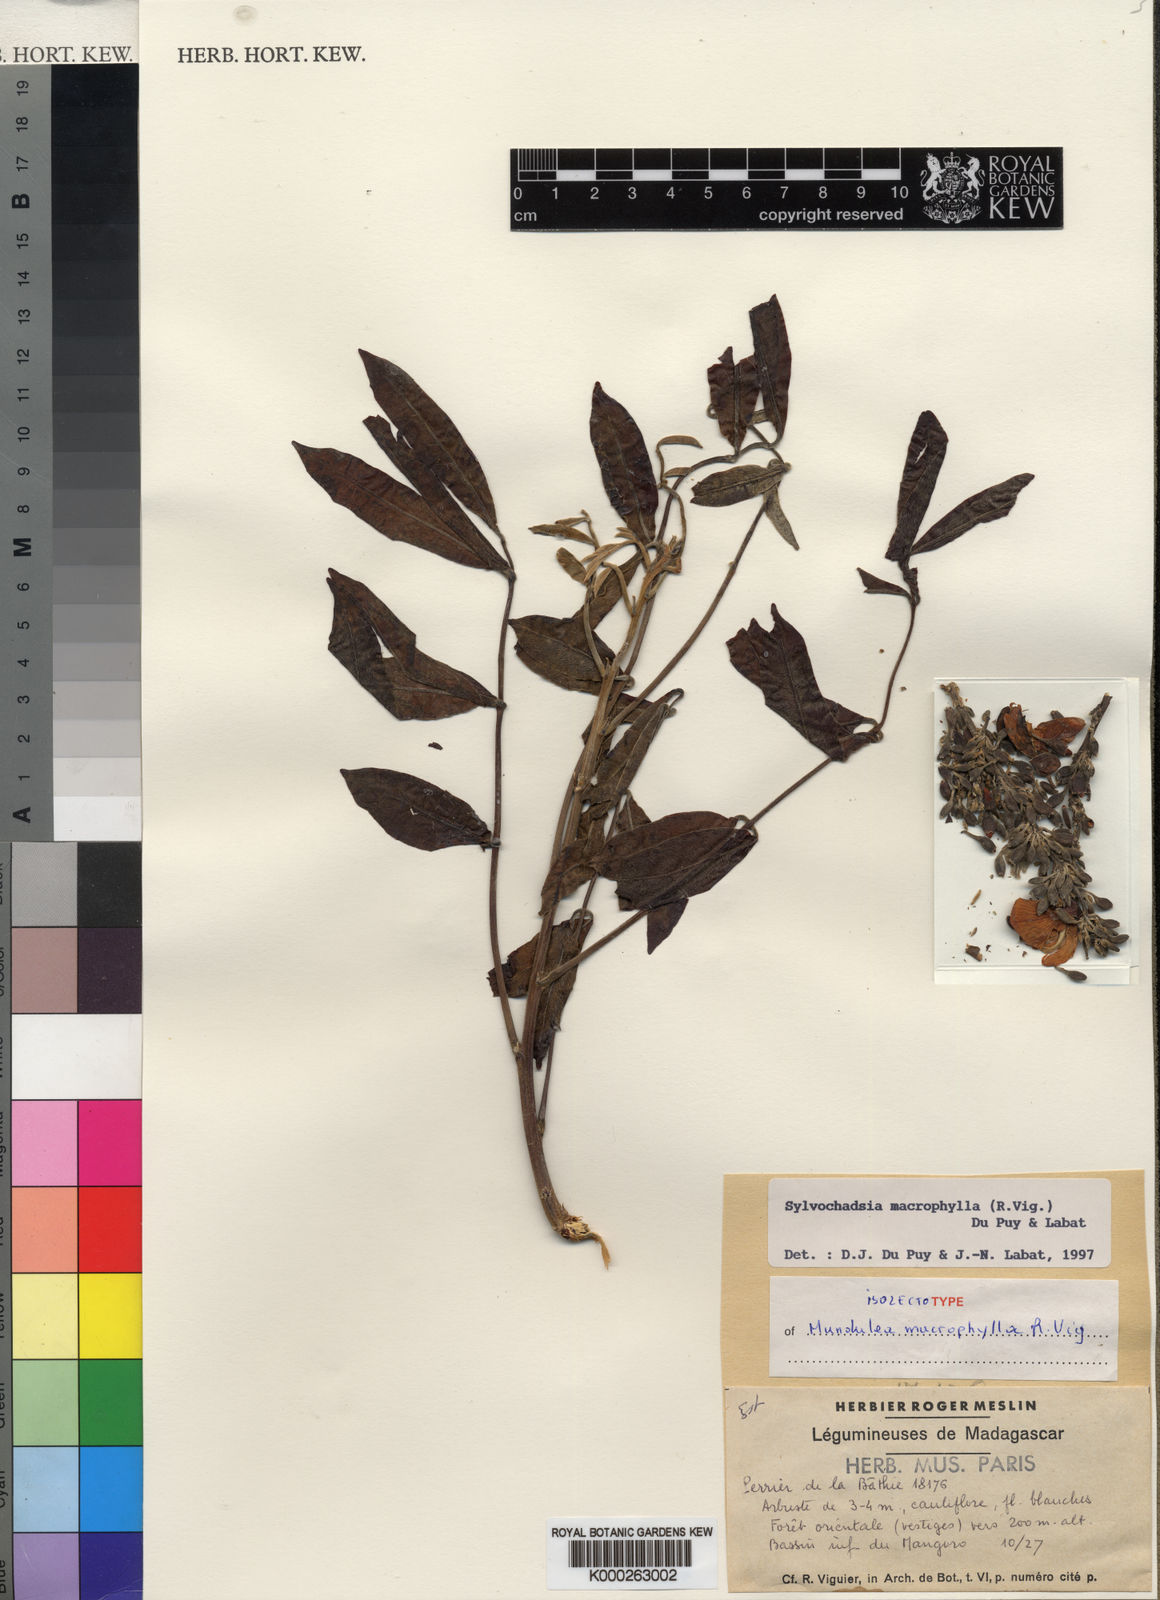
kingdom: Plantae
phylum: Tracheophyta
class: Magnoliopsida
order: Fabales
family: Fabaceae
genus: Sylvichadsia
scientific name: Sylvichadsia macrophylla
